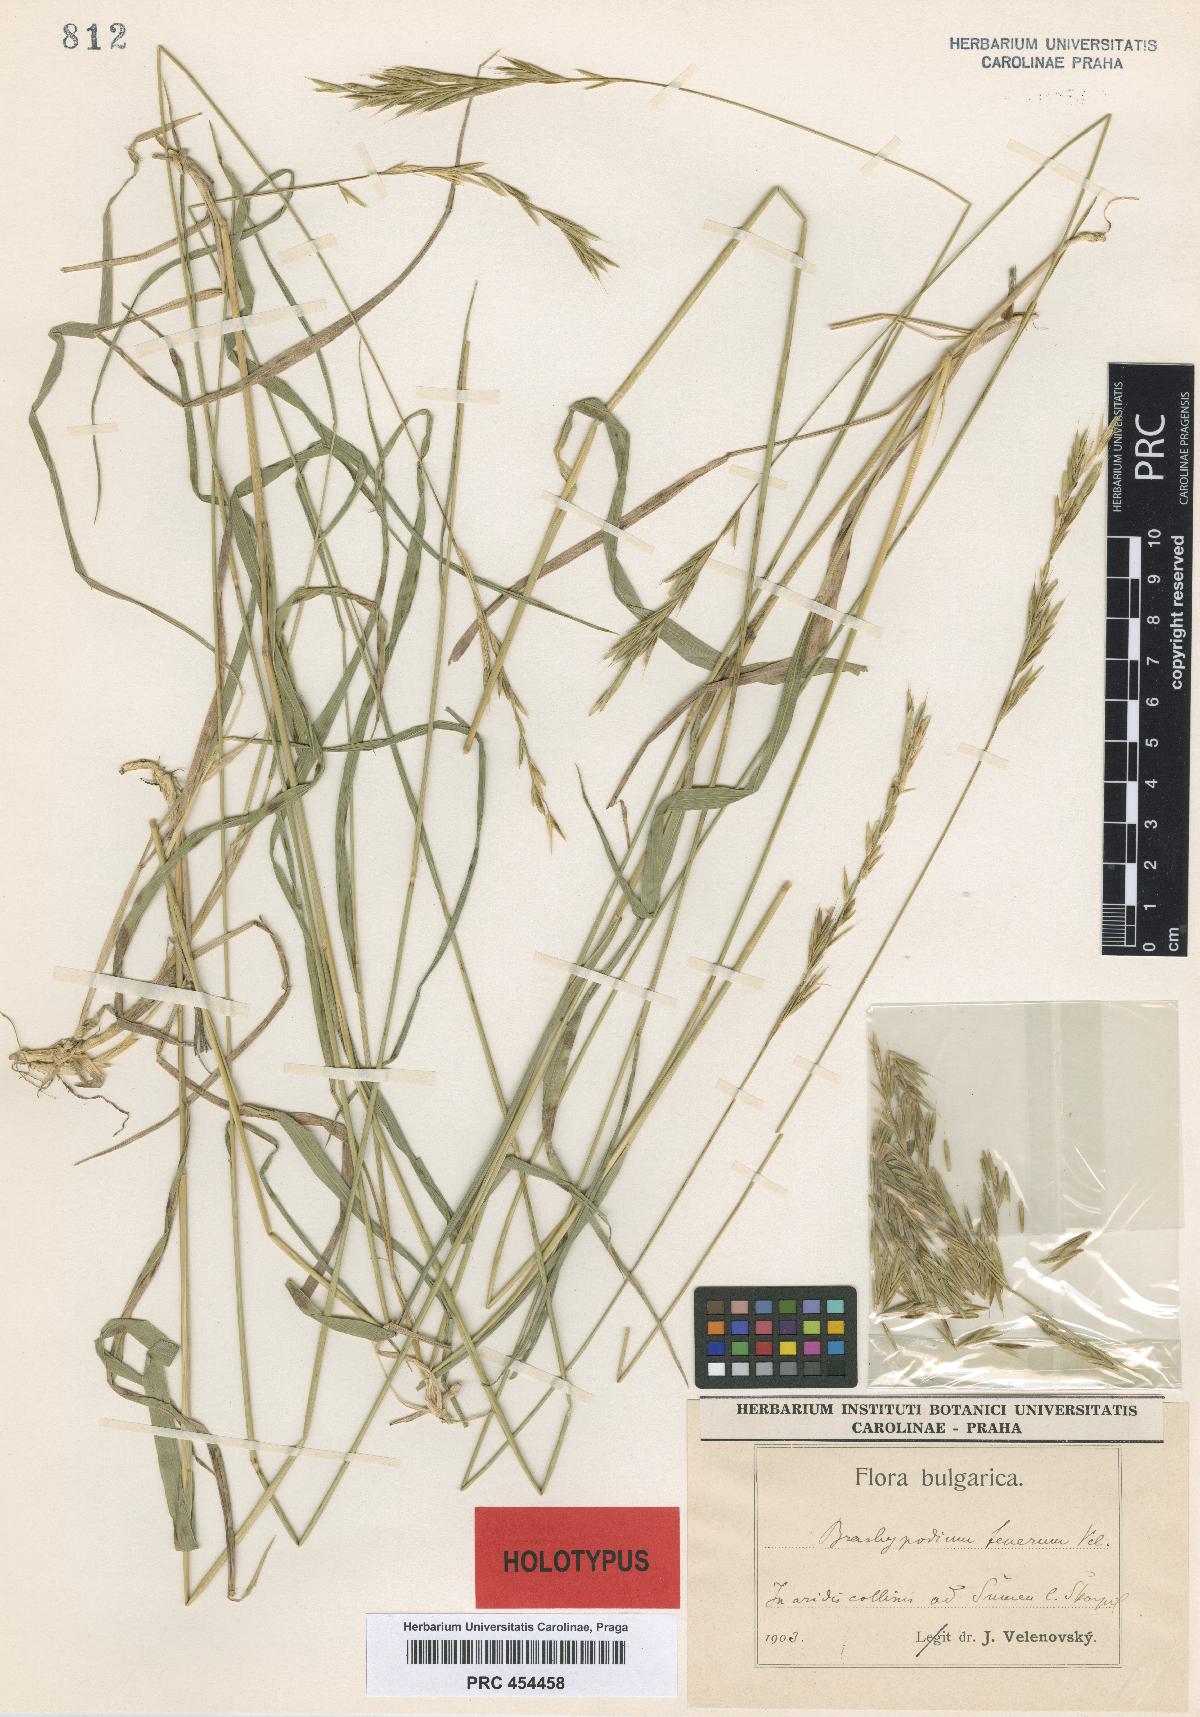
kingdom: Plantae
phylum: Tracheophyta
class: Liliopsida
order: Poales
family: Poaceae
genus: Brachypodium
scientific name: Brachypodium pinnatum
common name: Tor grass
